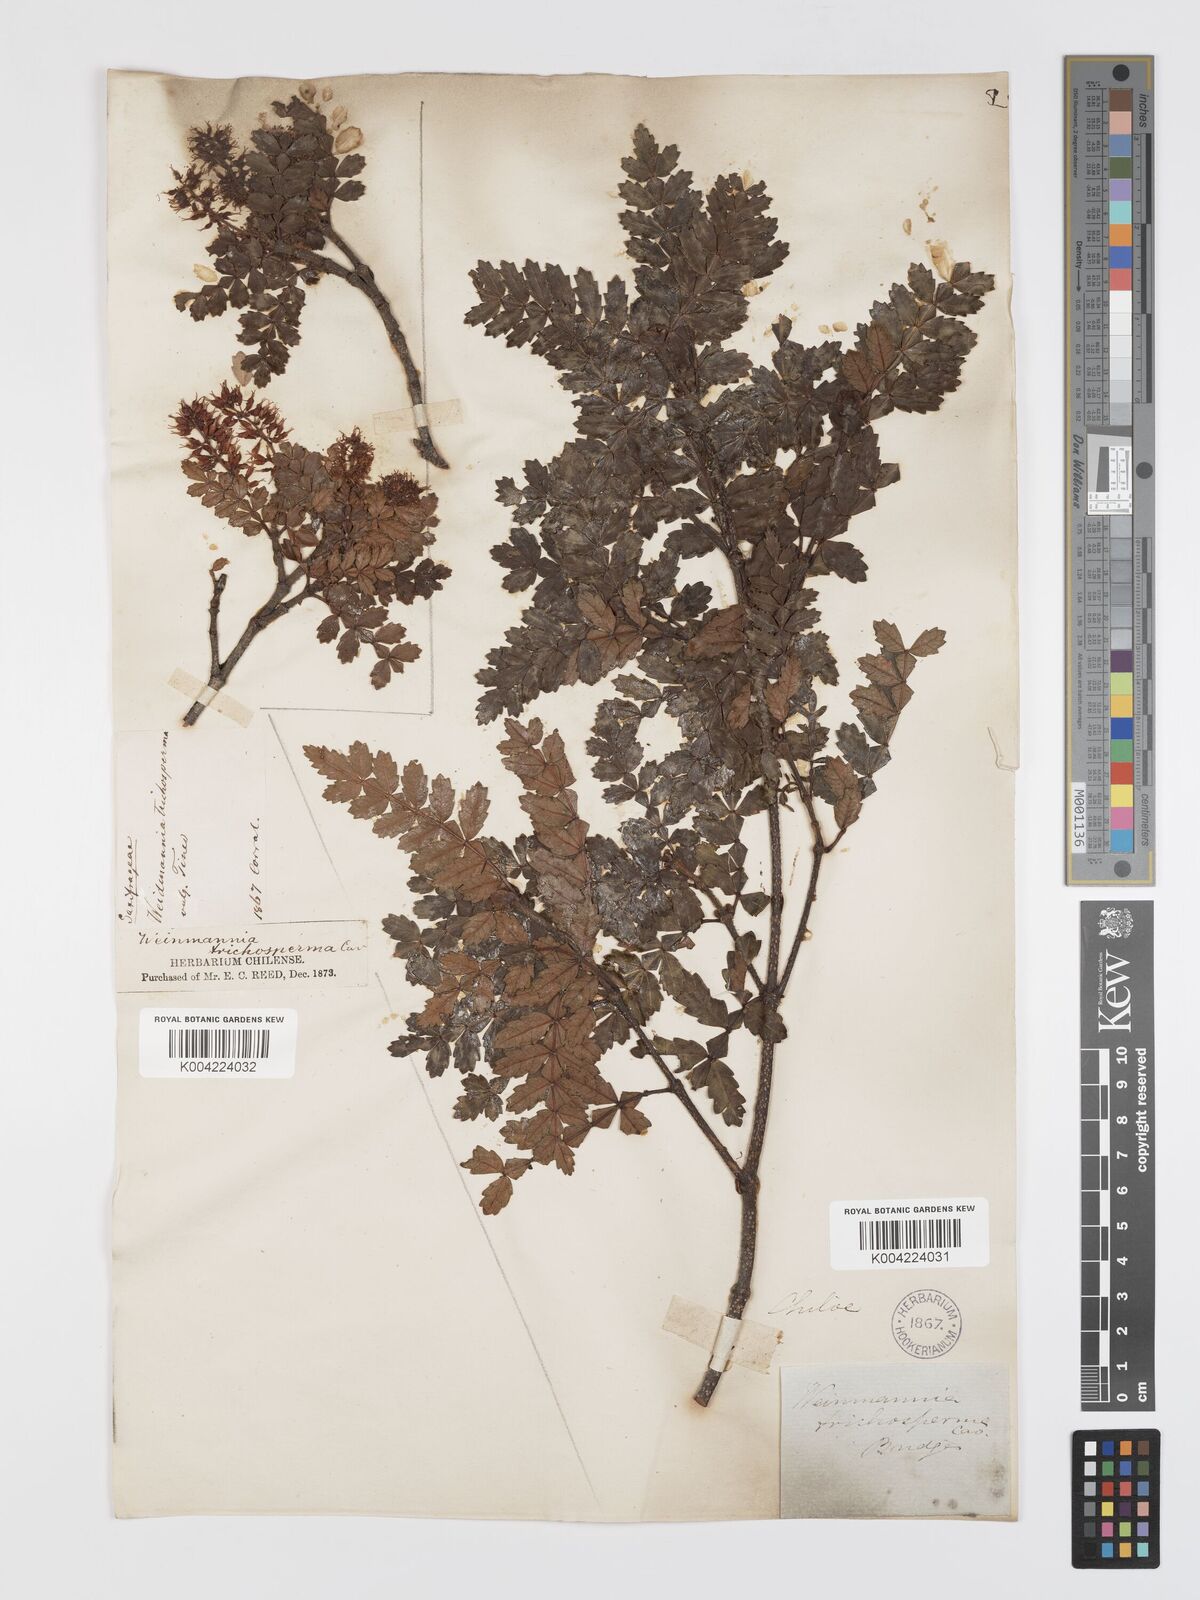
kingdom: Plantae
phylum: Tracheophyta
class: Magnoliopsida
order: Oxalidales
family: Cunoniaceae
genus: Weinmannia
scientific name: Weinmannia trichosperma
